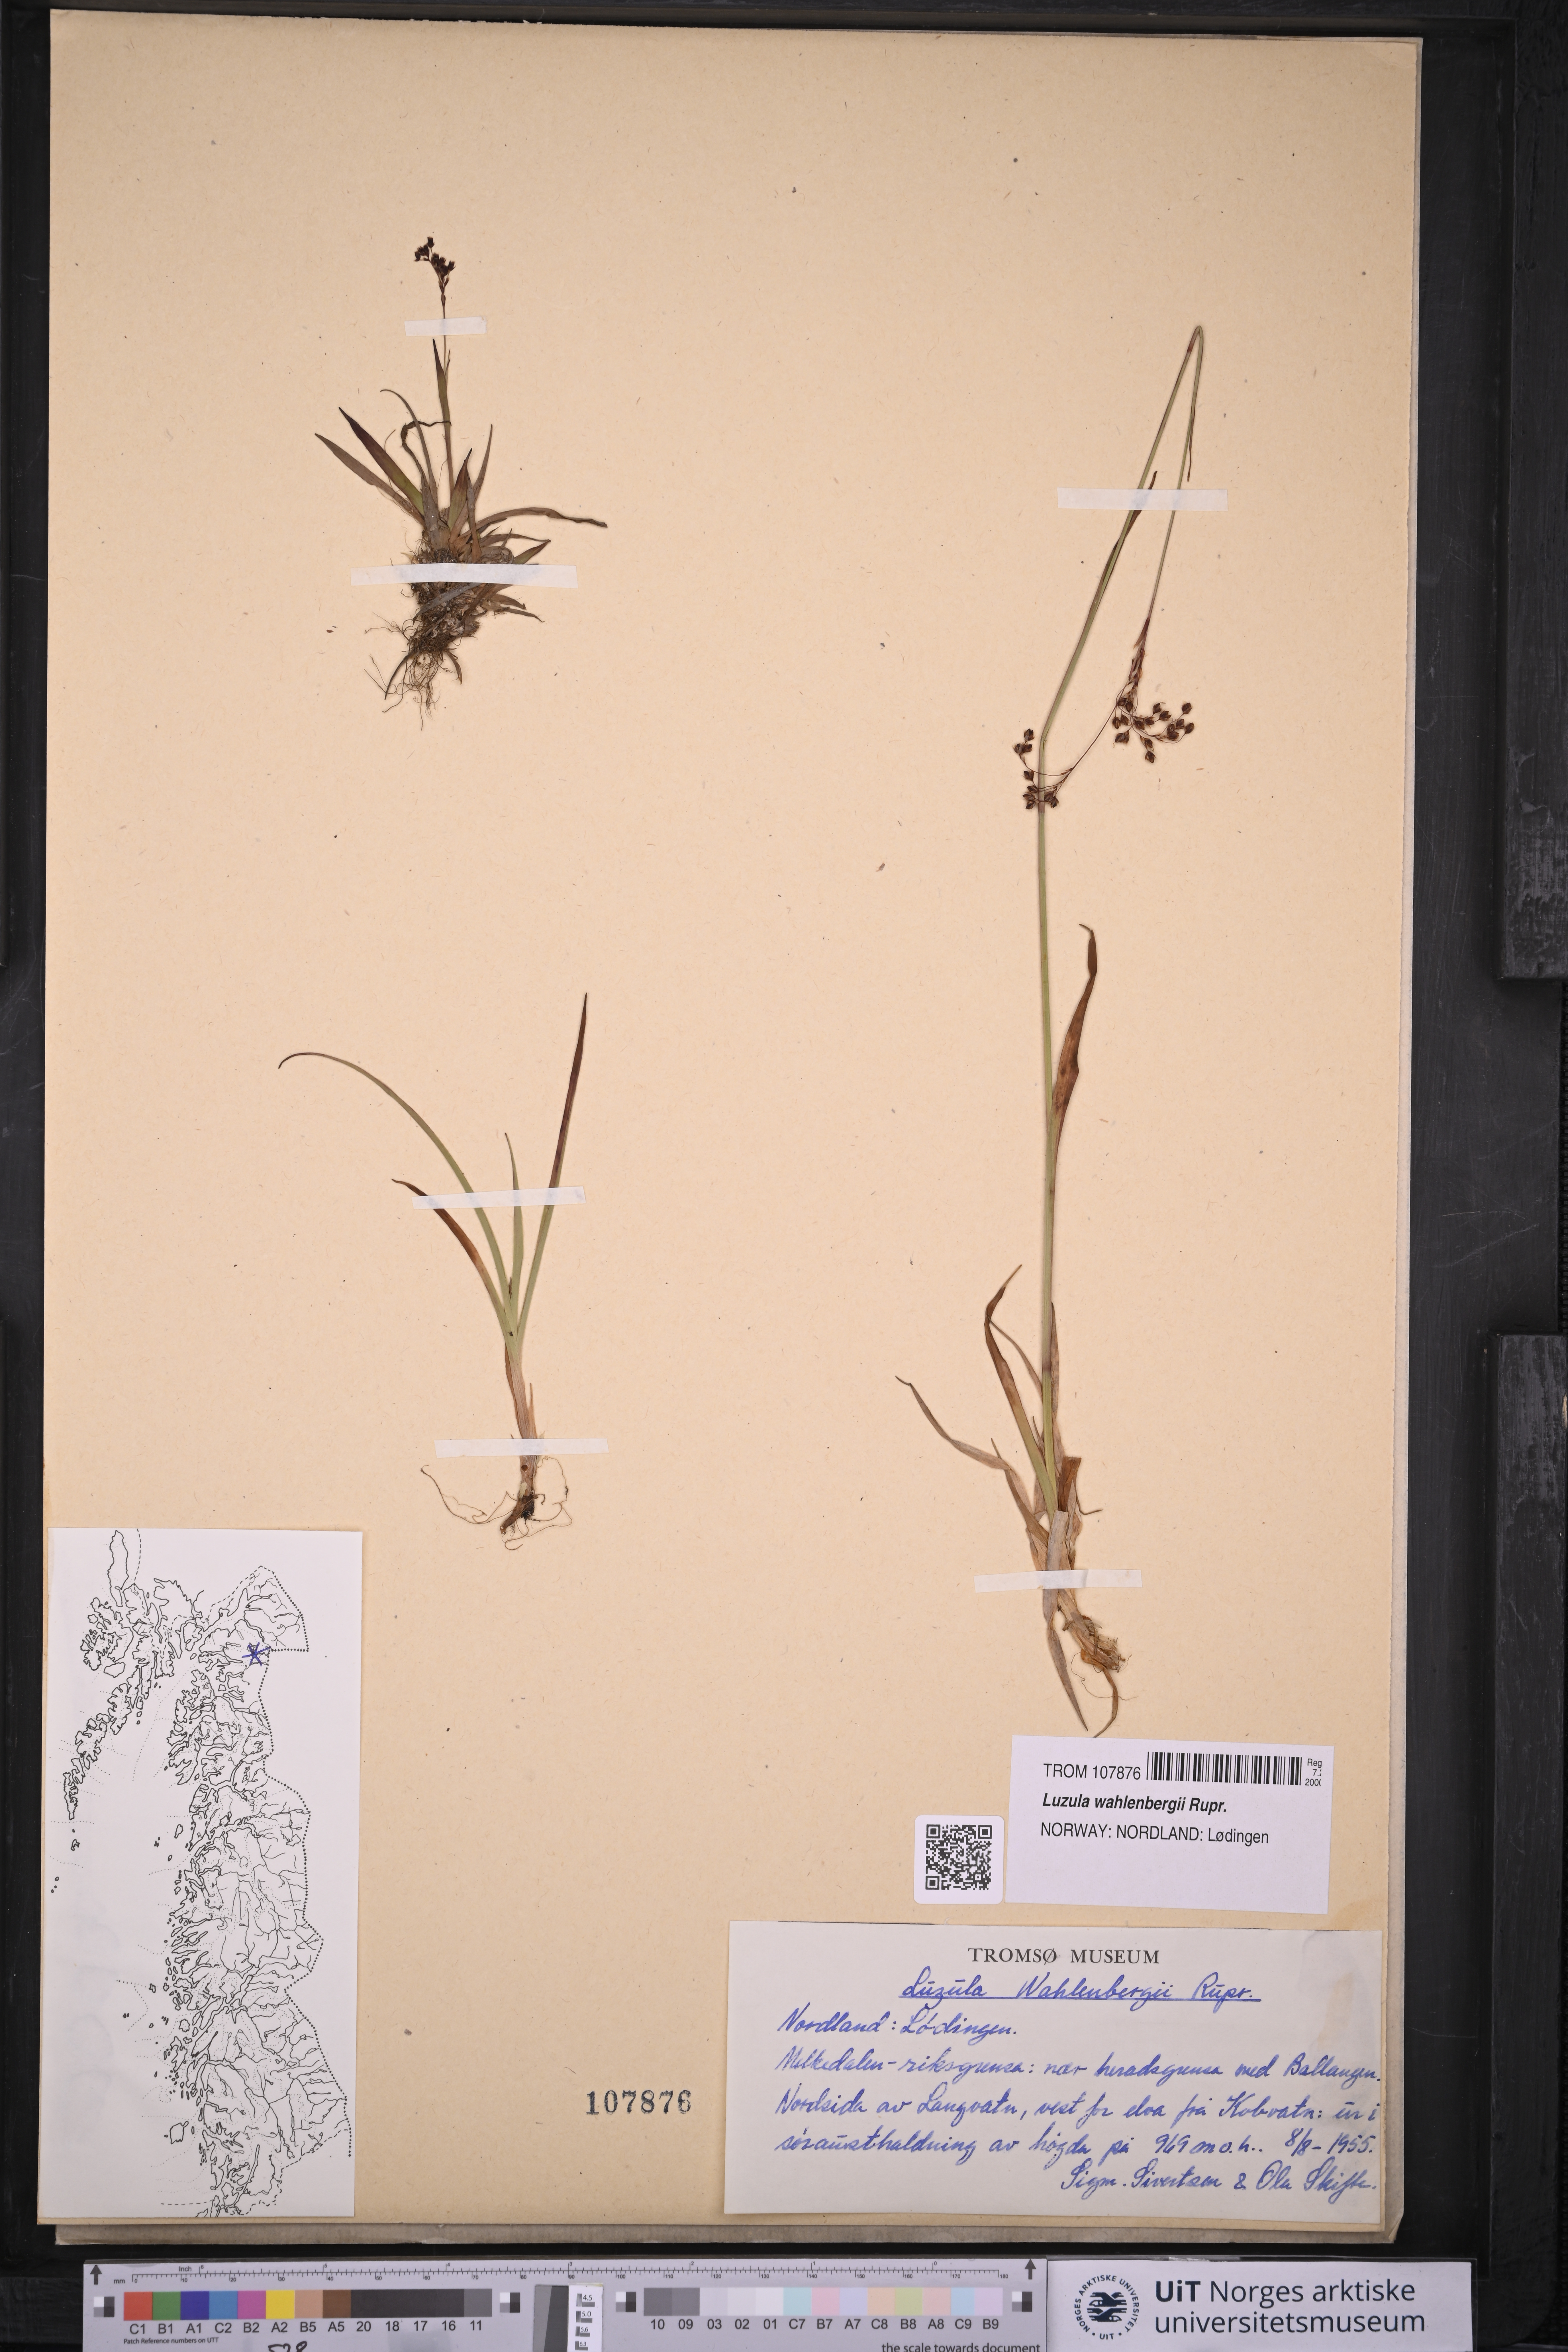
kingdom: Plantae
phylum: Tracheophyta
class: Liliopsida
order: Poales
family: Juncaceae
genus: Luzula
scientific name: Luzula wahlenbergii
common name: Wahlenberg's wood-rush
